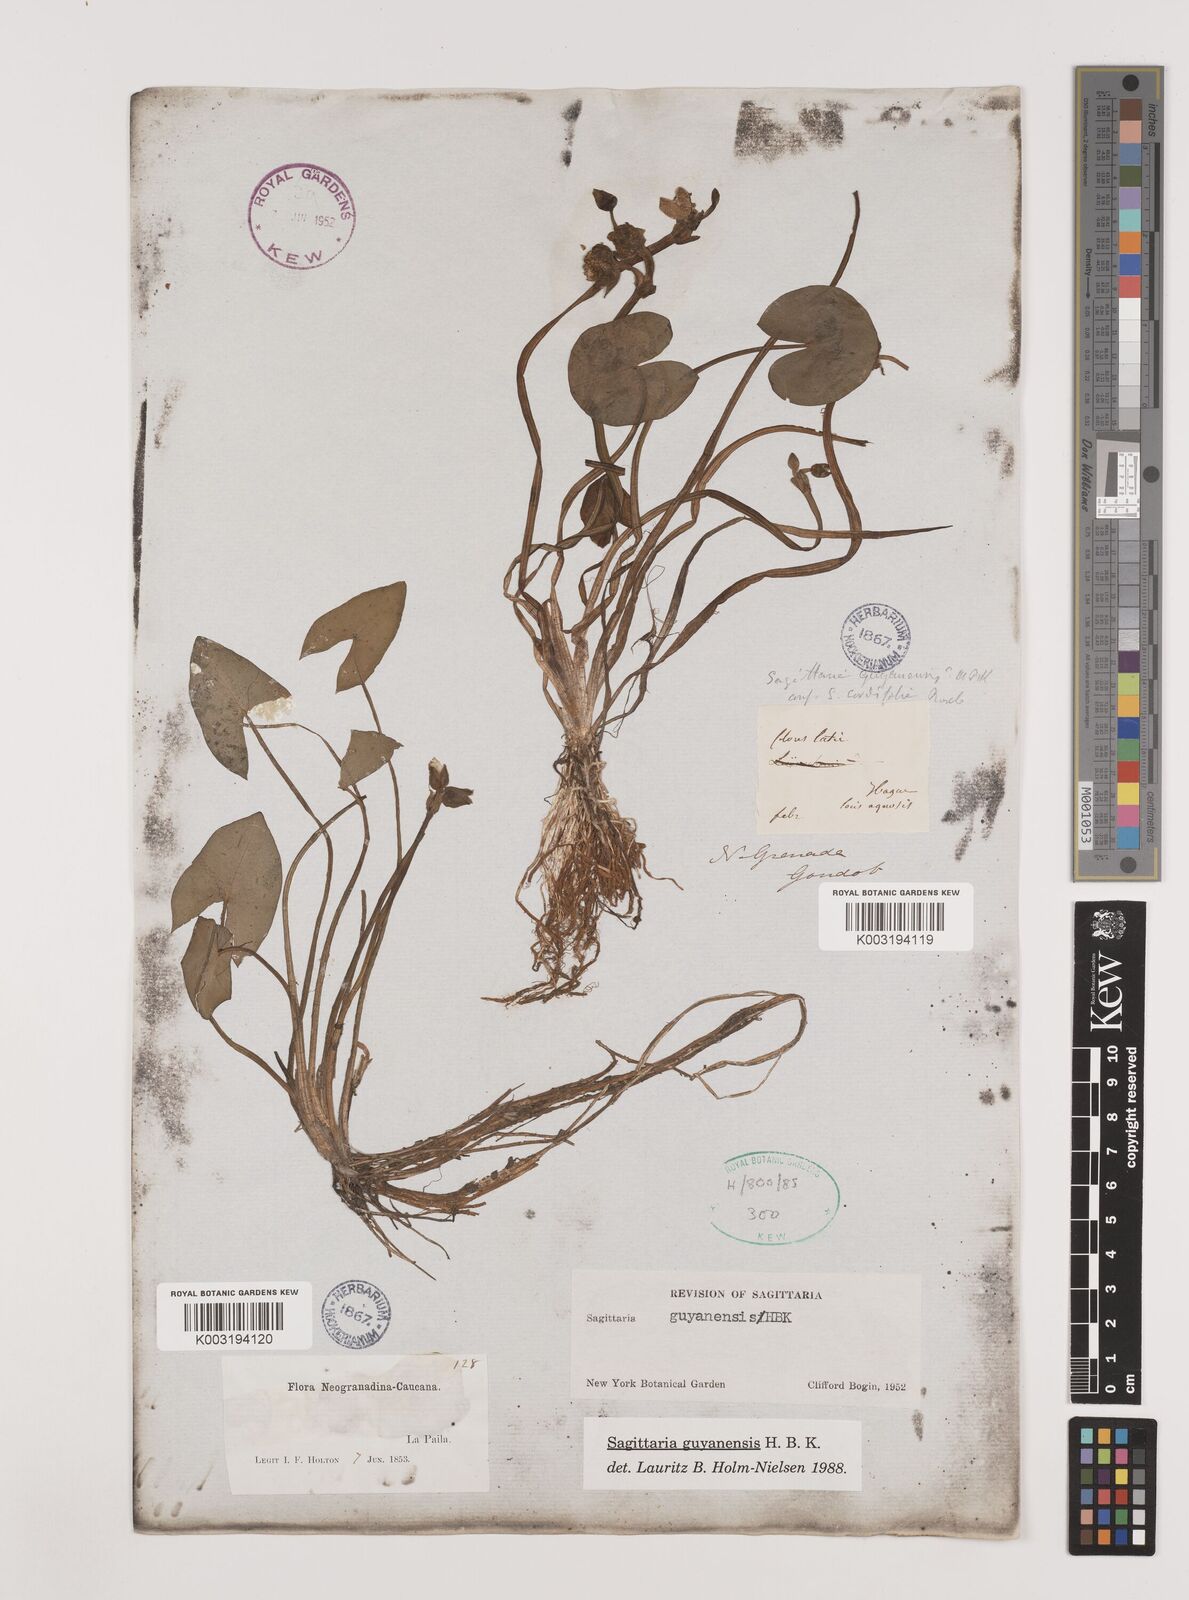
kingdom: Plantae
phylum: Tracheophyta
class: Liliopsida
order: Alismatales
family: Alismataceae
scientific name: Alismataceae
